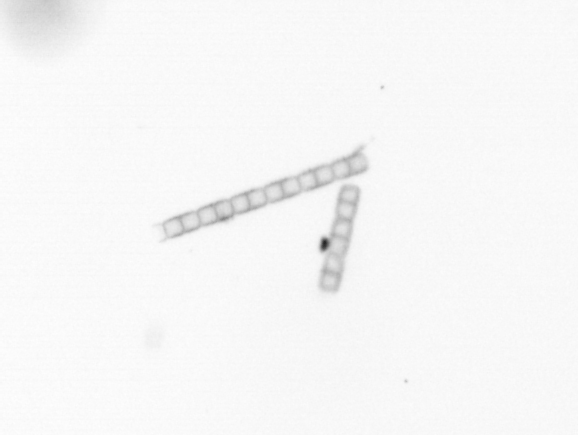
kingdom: Chromista
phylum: Ochrophyta
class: Bacillariophyceae
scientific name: Bacillariophyceae
